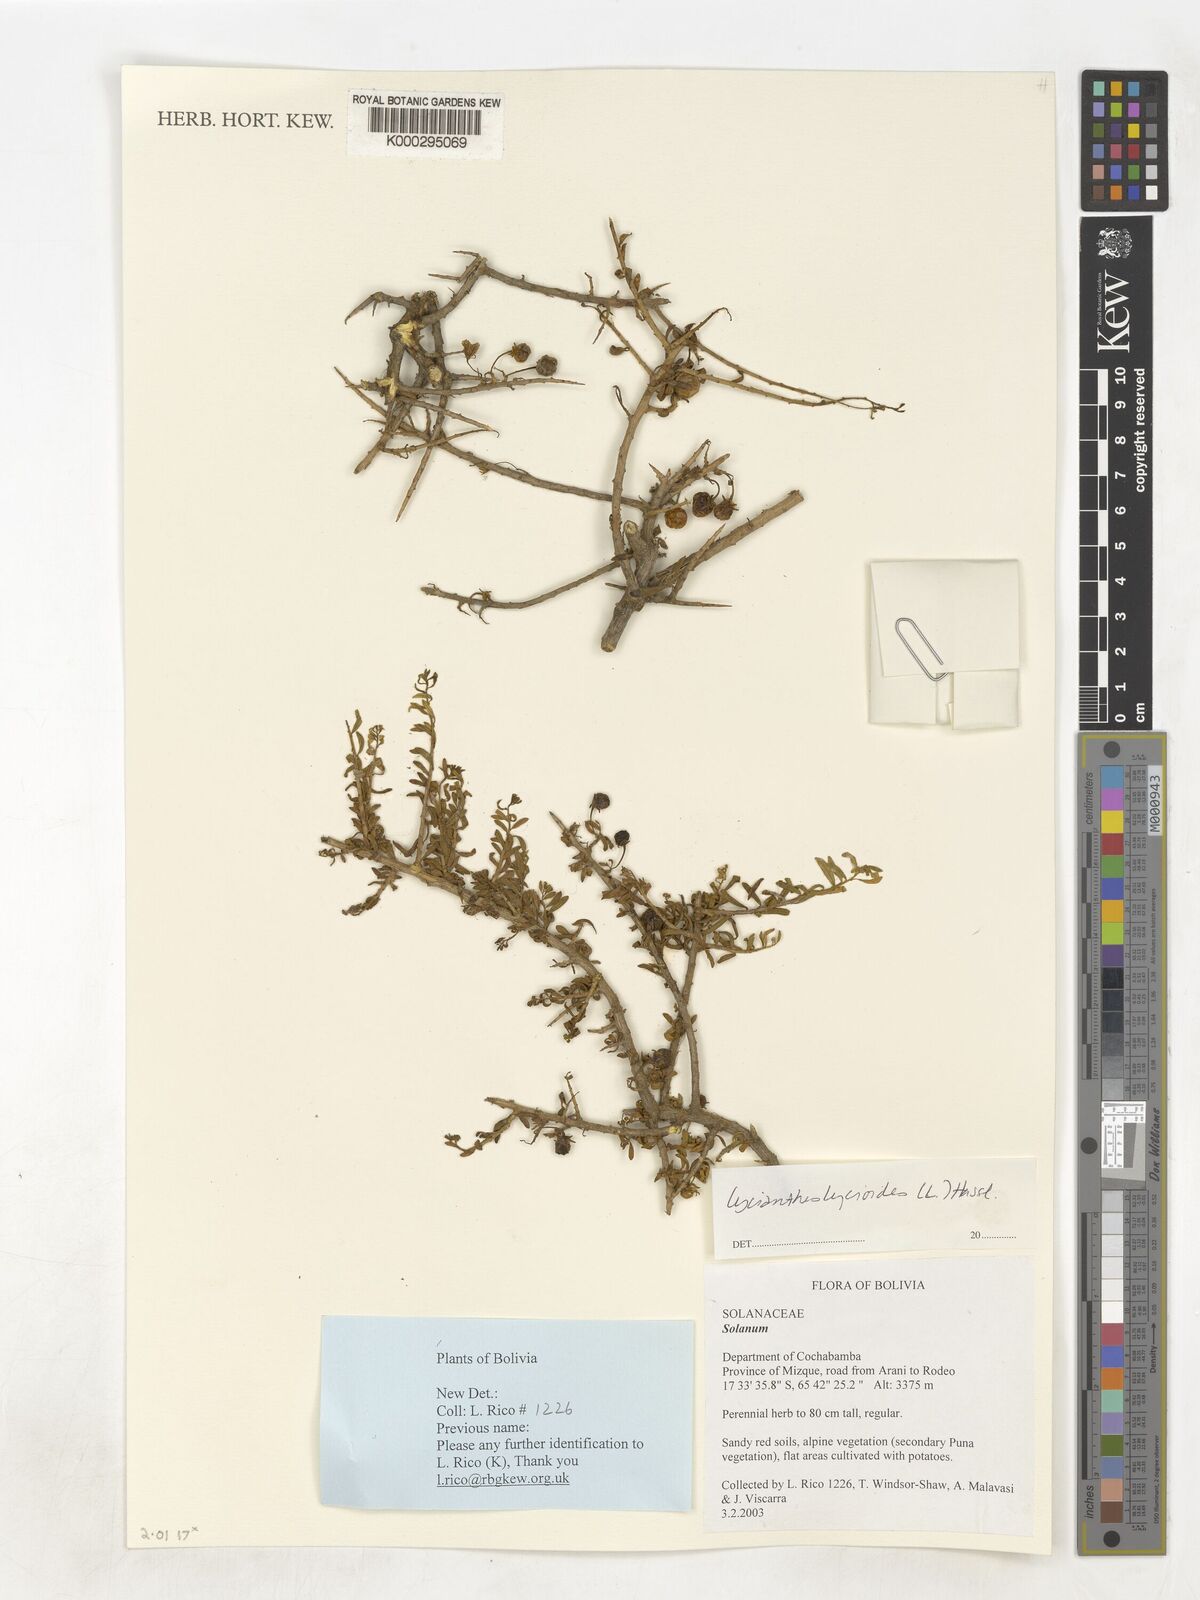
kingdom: Plantae
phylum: Tracheophyta
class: Magnoliopsida
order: Solanales
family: Solanaceae
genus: Lycianthes
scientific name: Lycianthes lycioides
